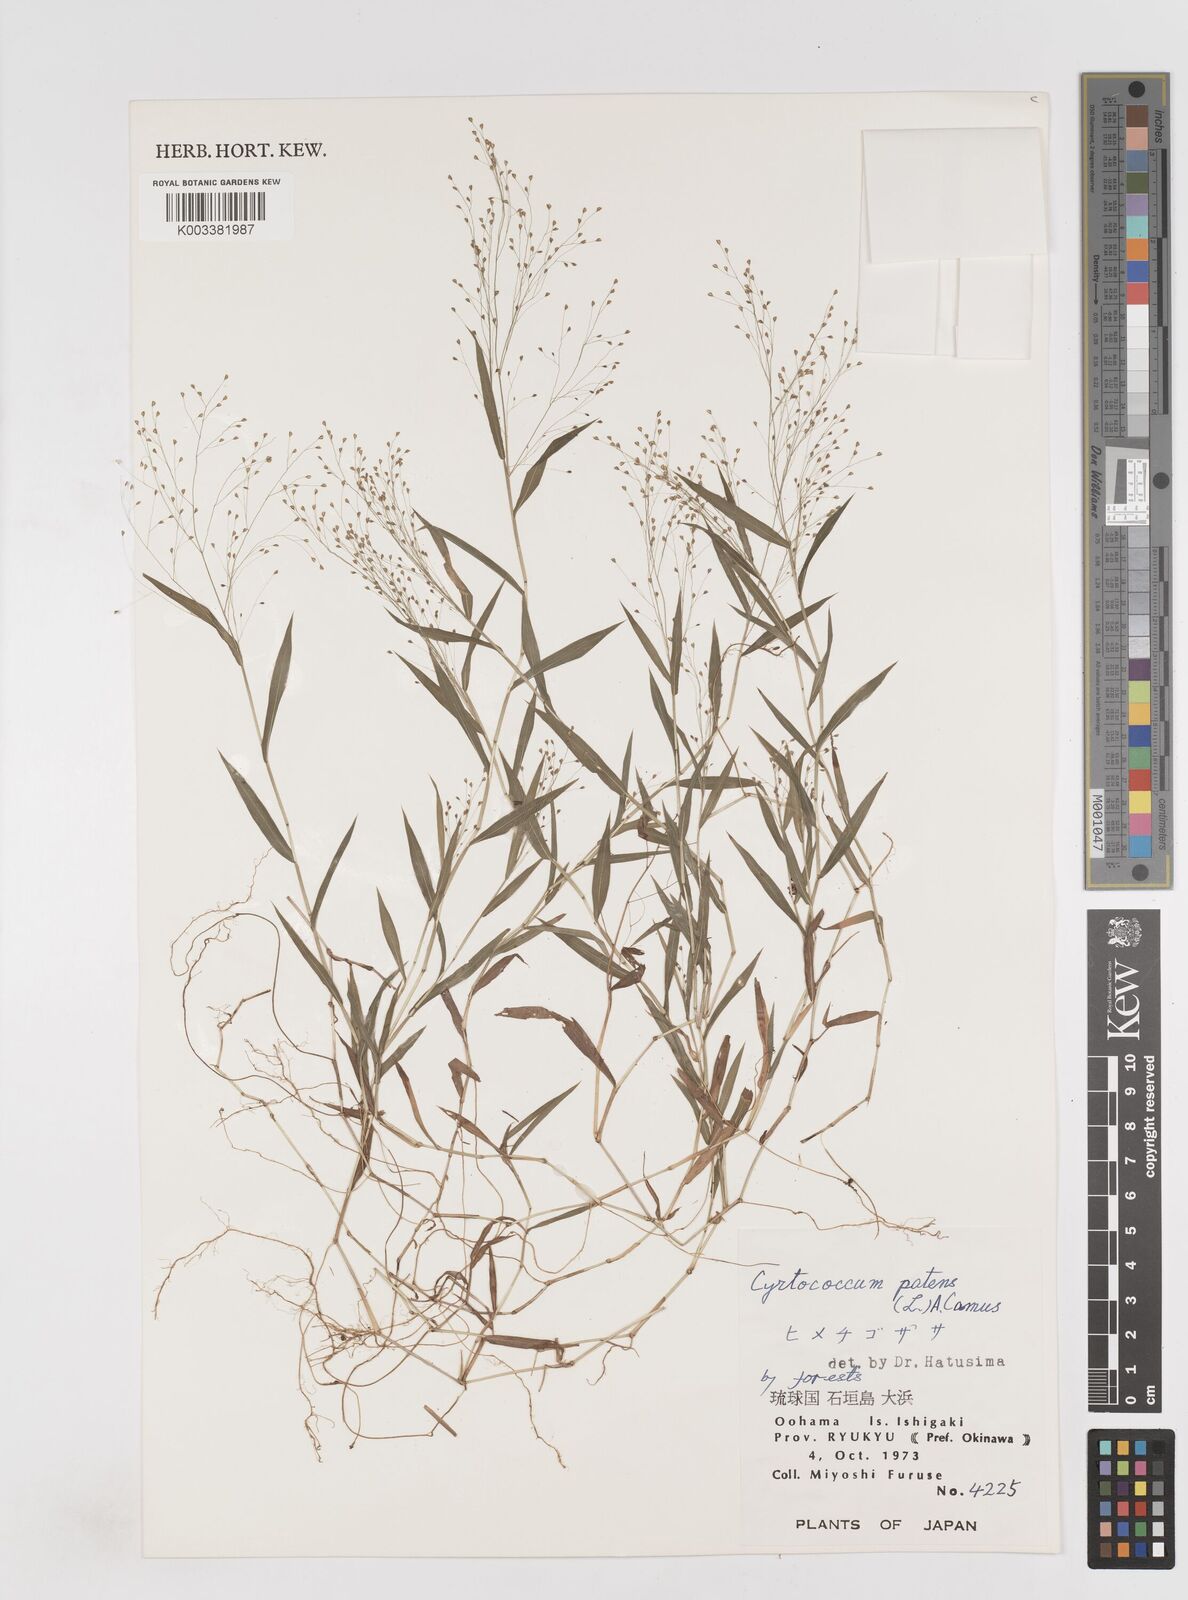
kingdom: Plantae
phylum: Tracheophyta
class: Liliopsida
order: Poales
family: Poaceae
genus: Cyrtococcum
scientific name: Cyrtococcum patens
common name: Broad-leaved bowgrass
